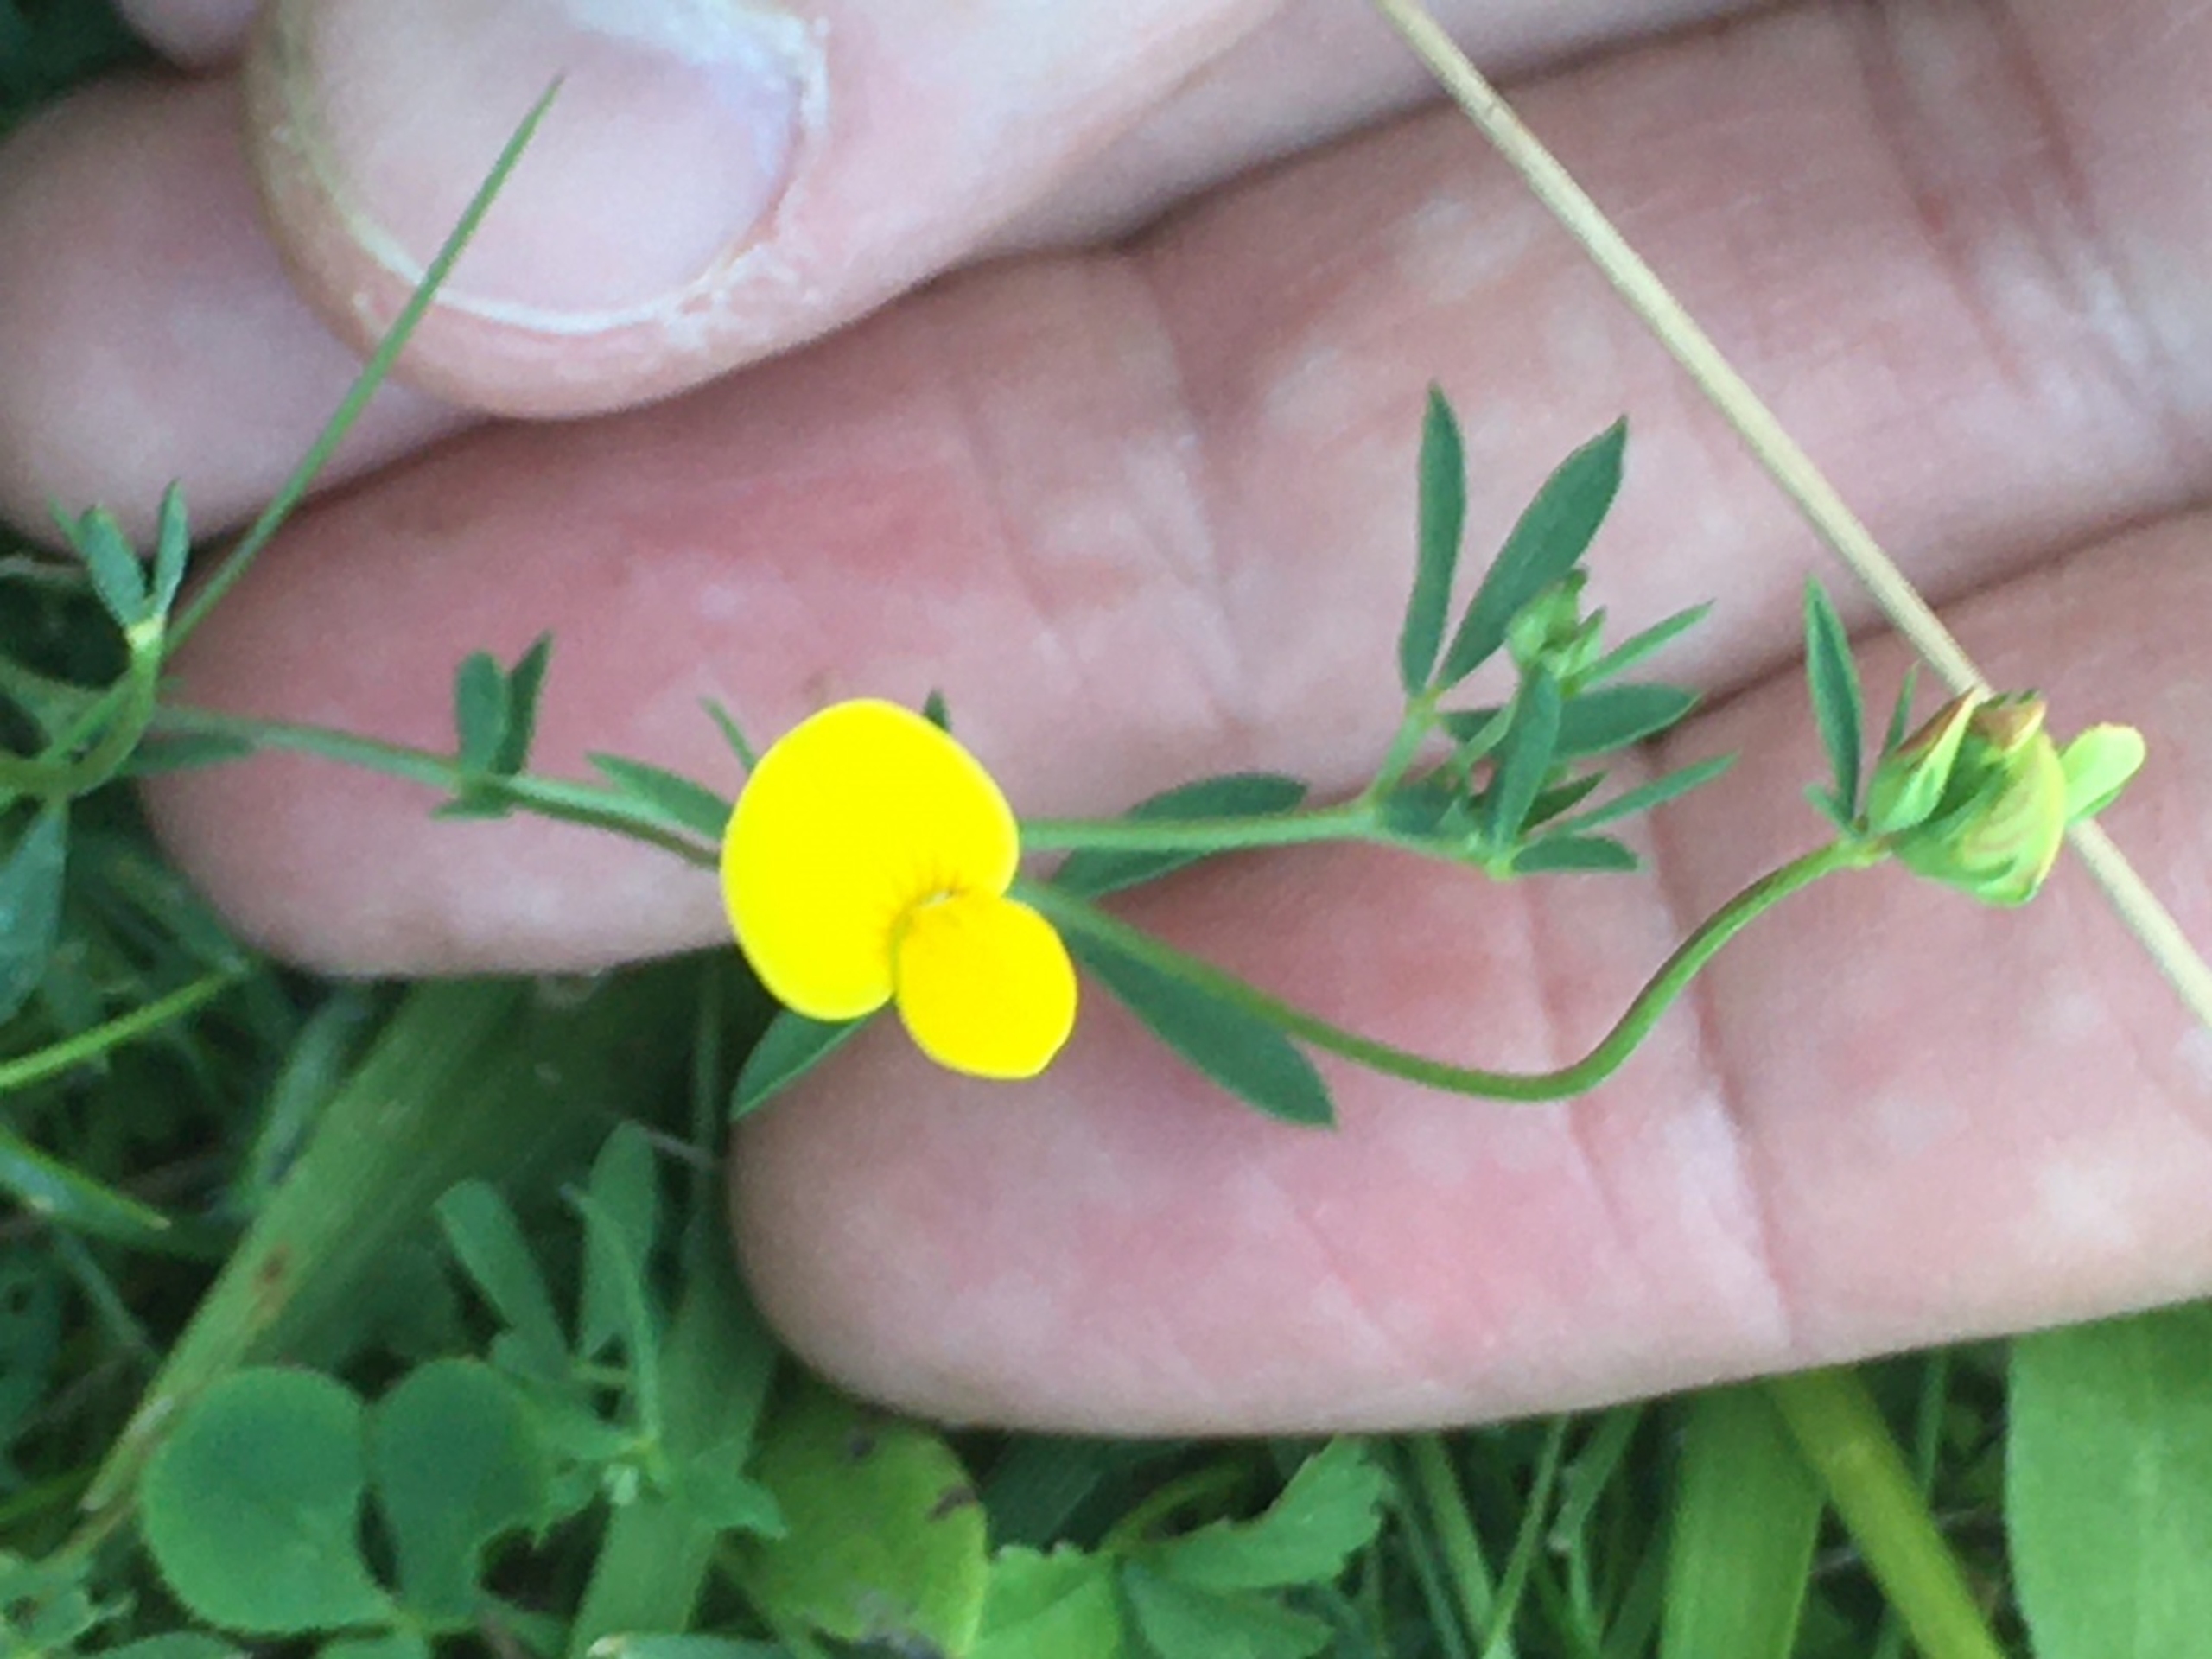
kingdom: Plantae
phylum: Tracheophyta
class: Magnoliopsida
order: Fabales
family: Fabaceae
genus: Lotus
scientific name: Lotus tenuis
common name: Smalbladet kællingetand
